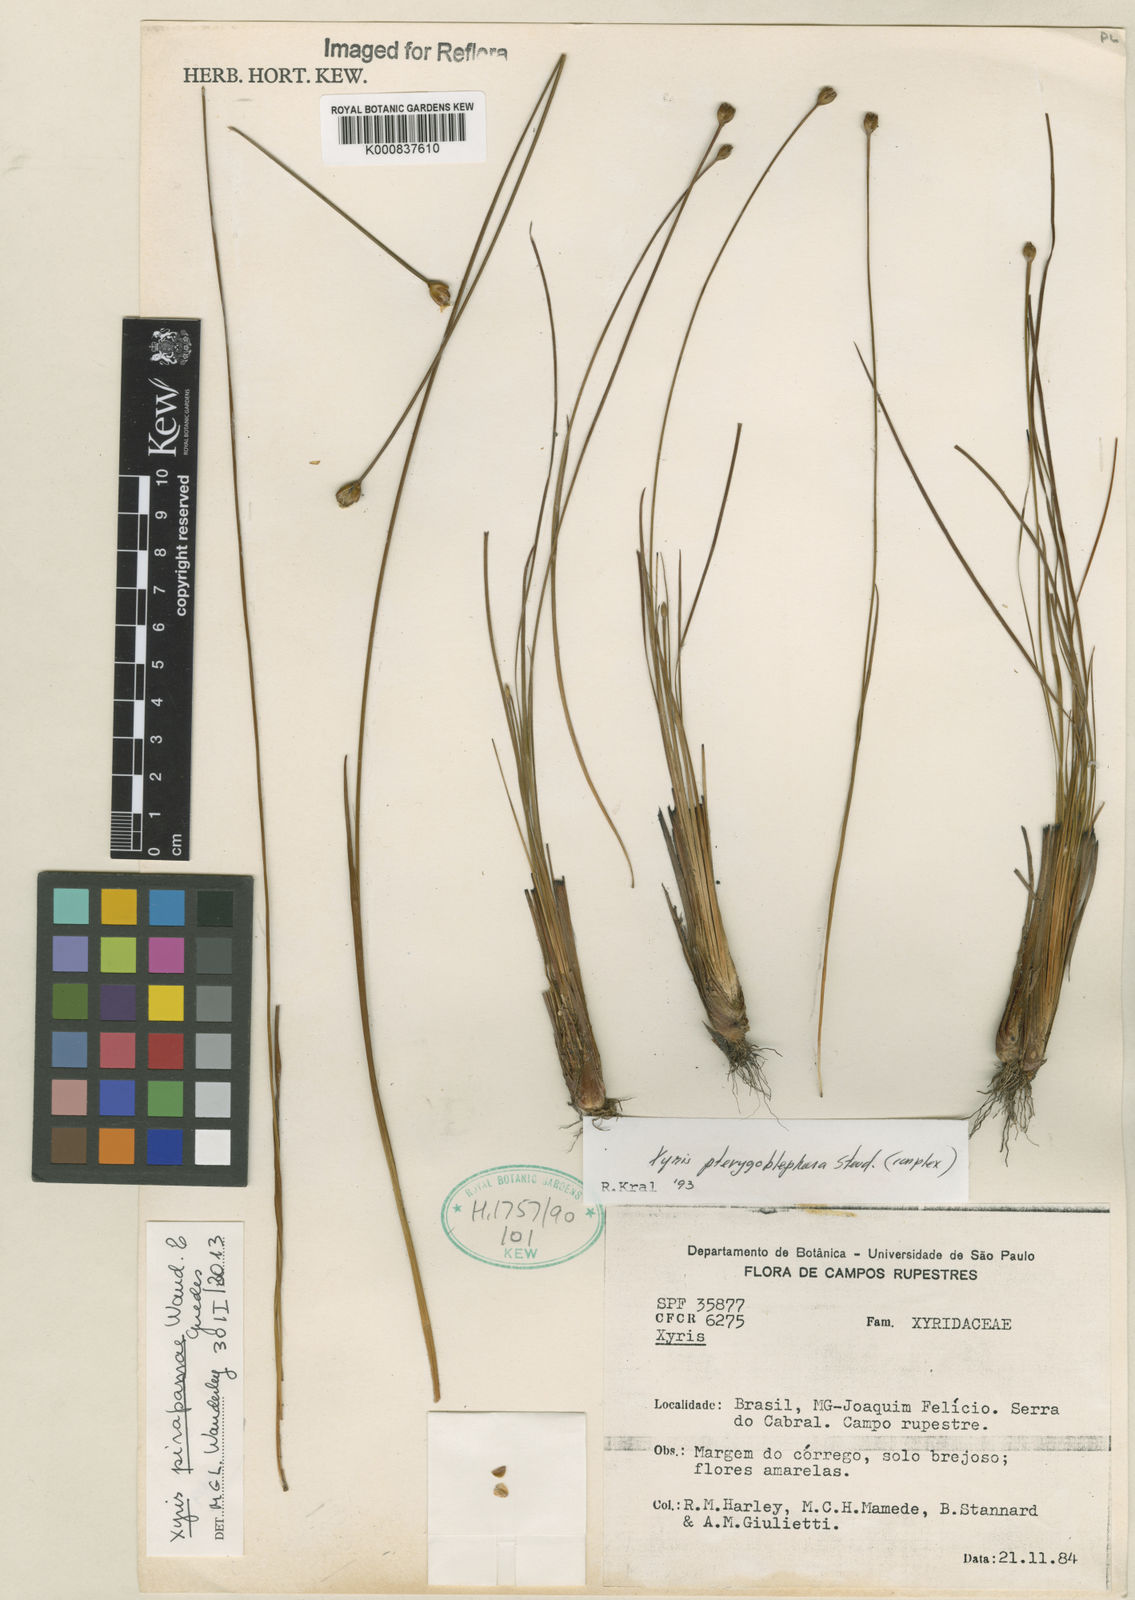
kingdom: Plantae
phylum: Tracheophyta
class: Liliopsida
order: Poales
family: Xyridaceae
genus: Xyris
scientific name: Xyris pirapamae
